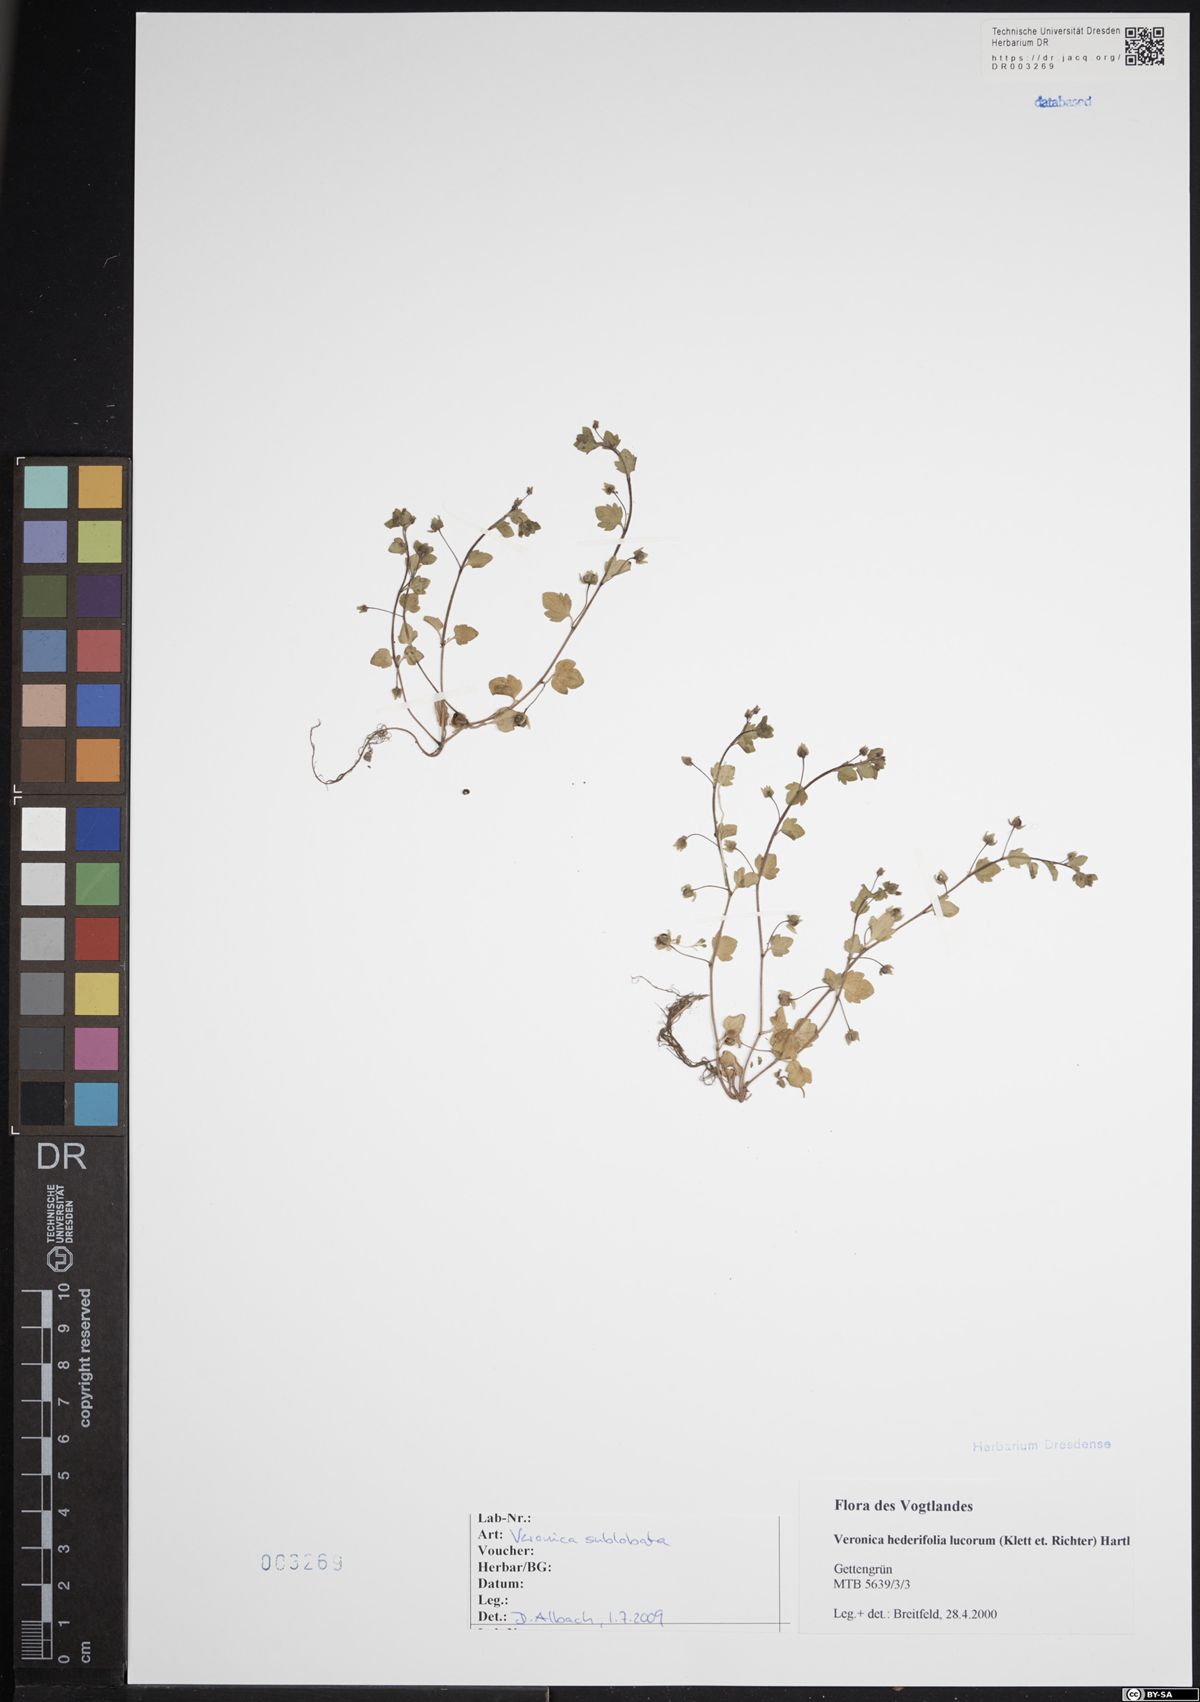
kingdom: Plantae
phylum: Tracheophyta
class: Magnoliopsida
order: Lamiales
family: Plantaginaceae
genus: Veronica
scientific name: Veronica sublobata
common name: False ivy-leaved speedwell
